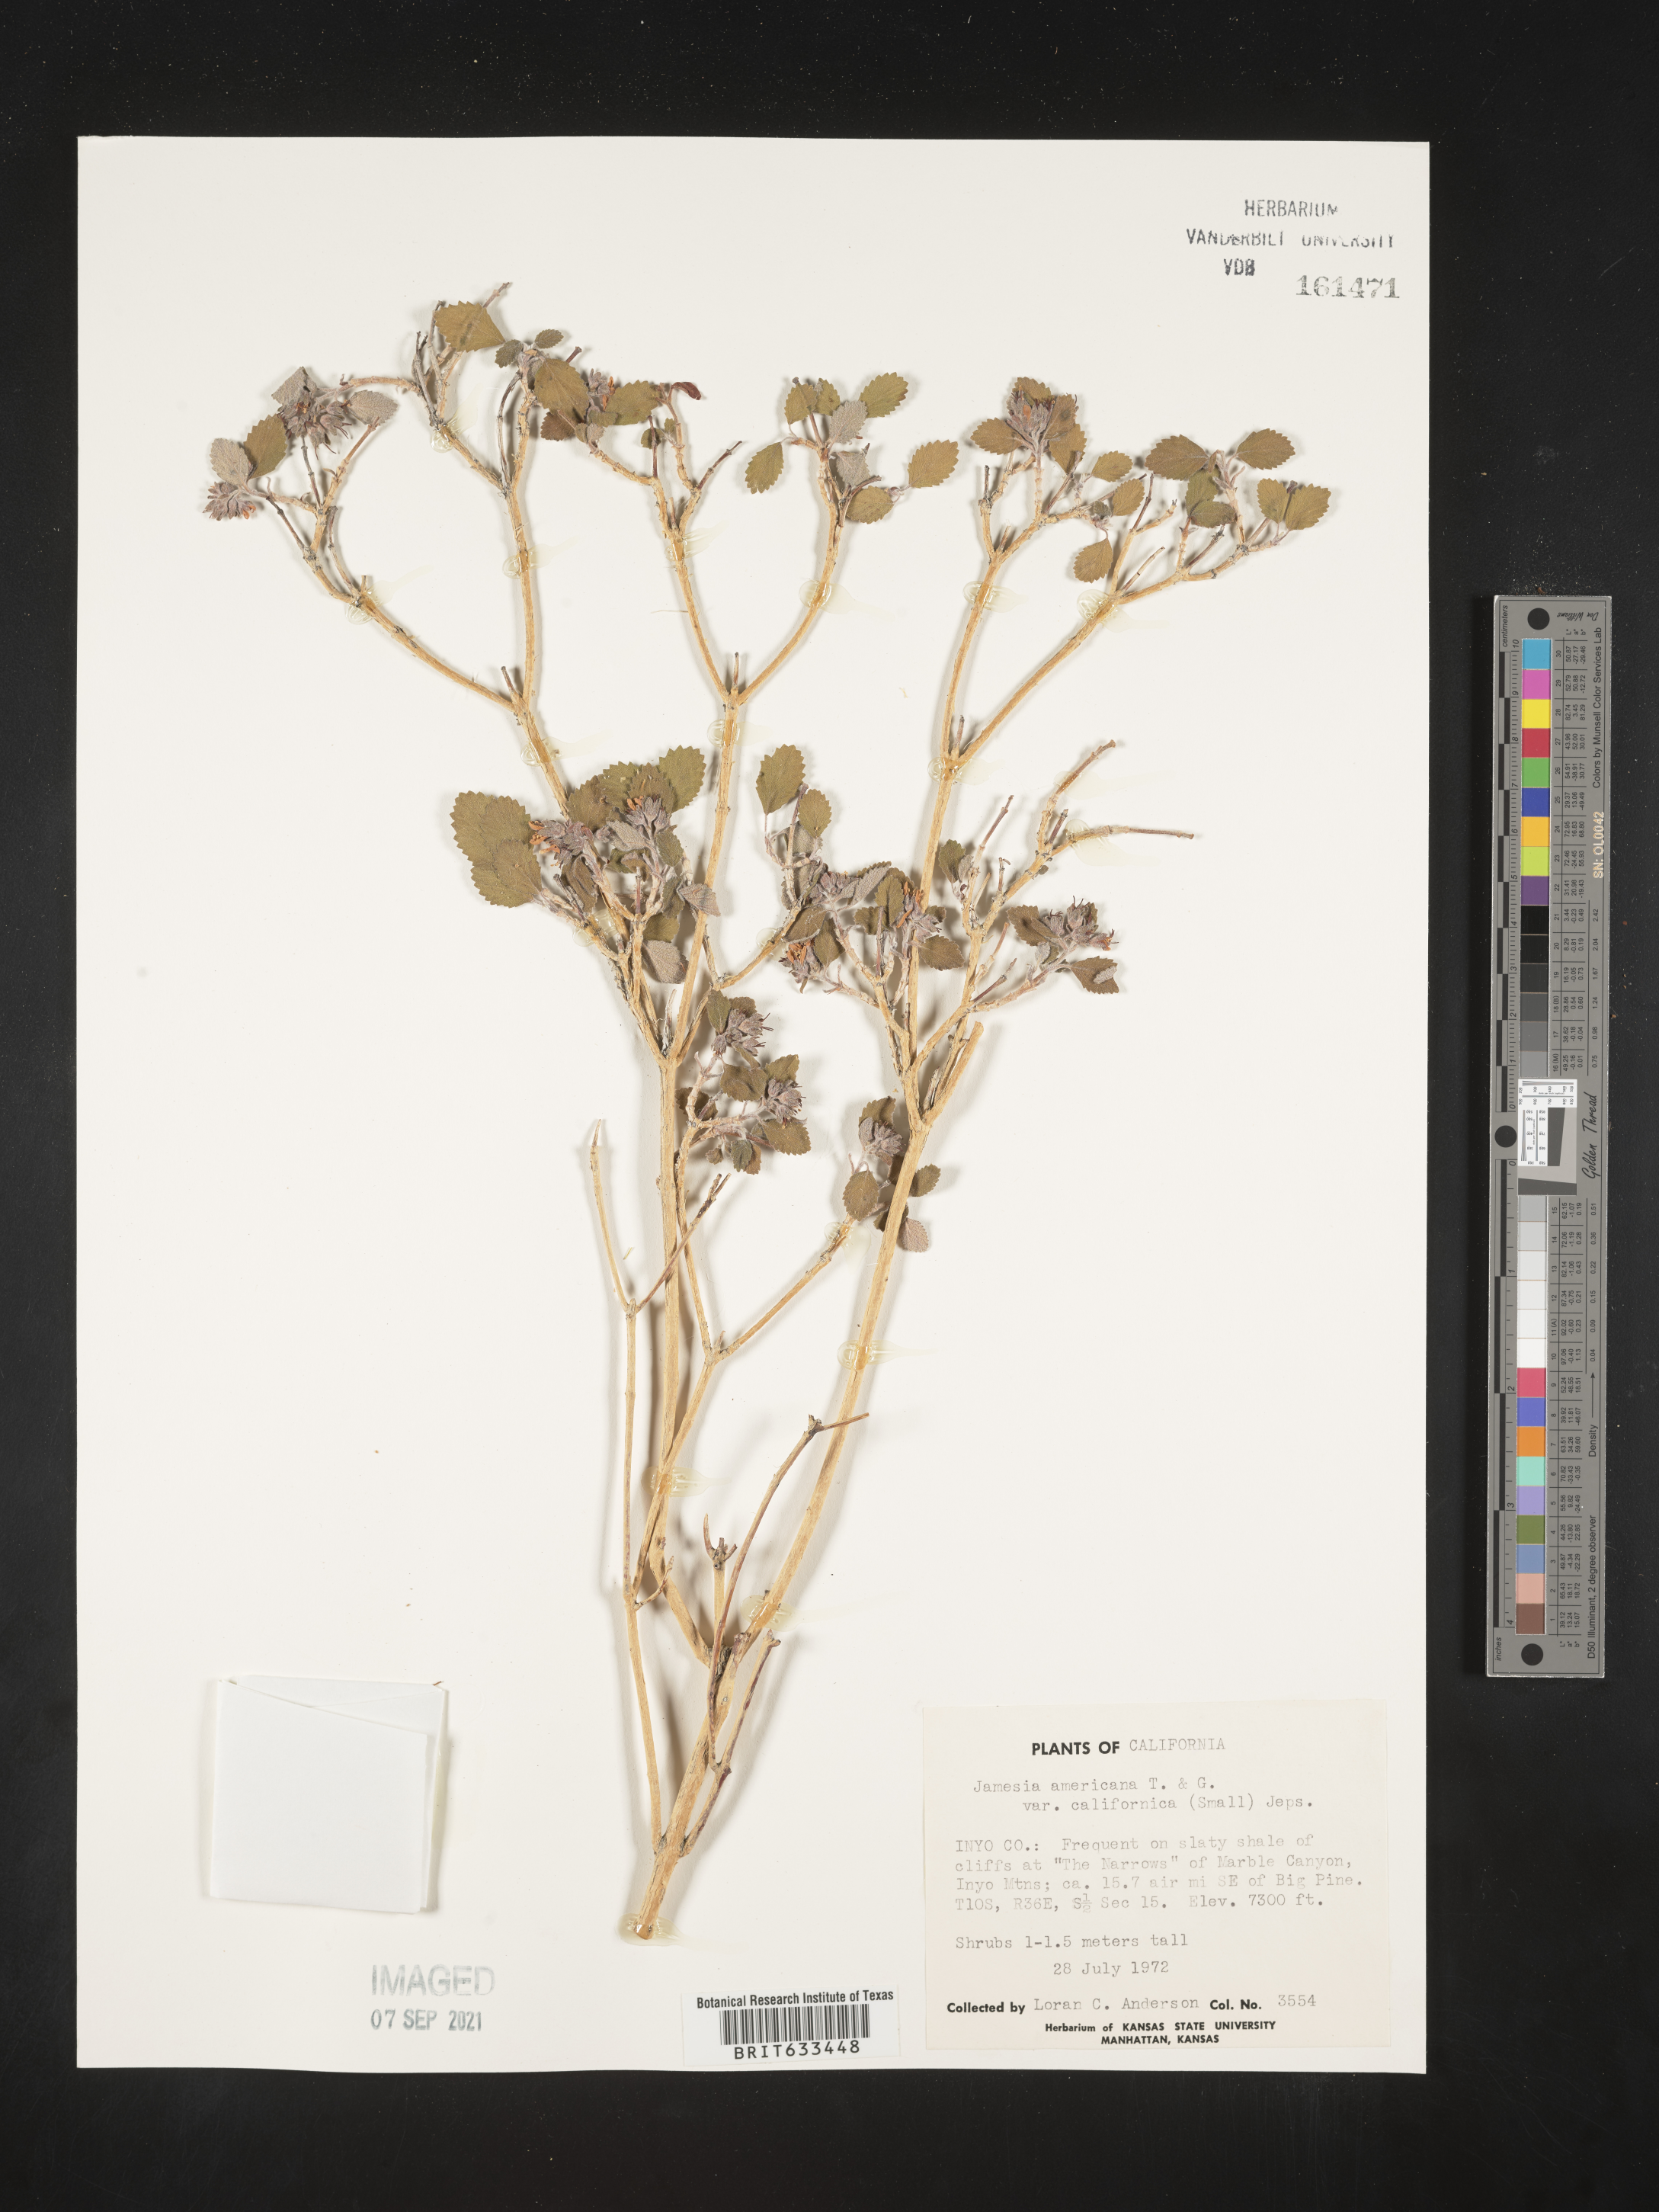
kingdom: Plantae
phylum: Tracheophyta
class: Magnoliopsida
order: Cornales
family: Hydrangeaceae
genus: Jamesia
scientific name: Jamesia americana
